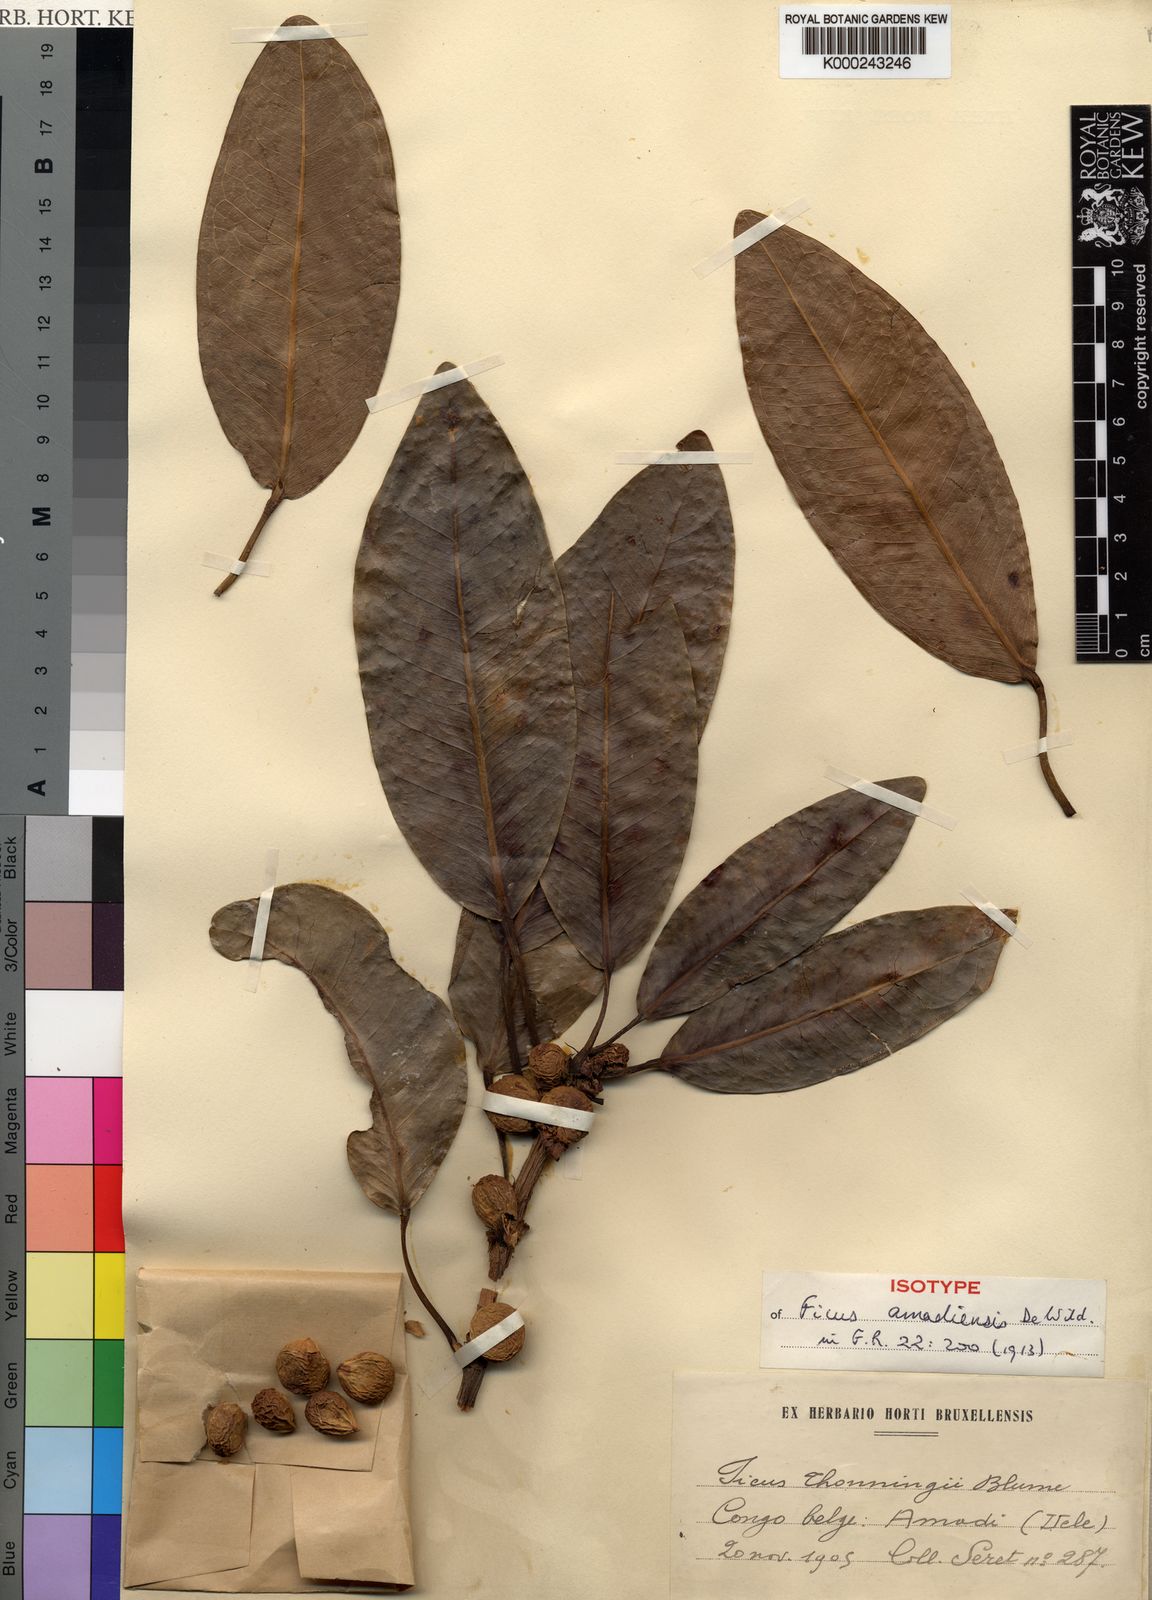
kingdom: Plantae
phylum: Tracheophyta
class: Magnoliopsida
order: Rosales
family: Moraceae
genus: Ficus
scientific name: Ficus amadiensis
